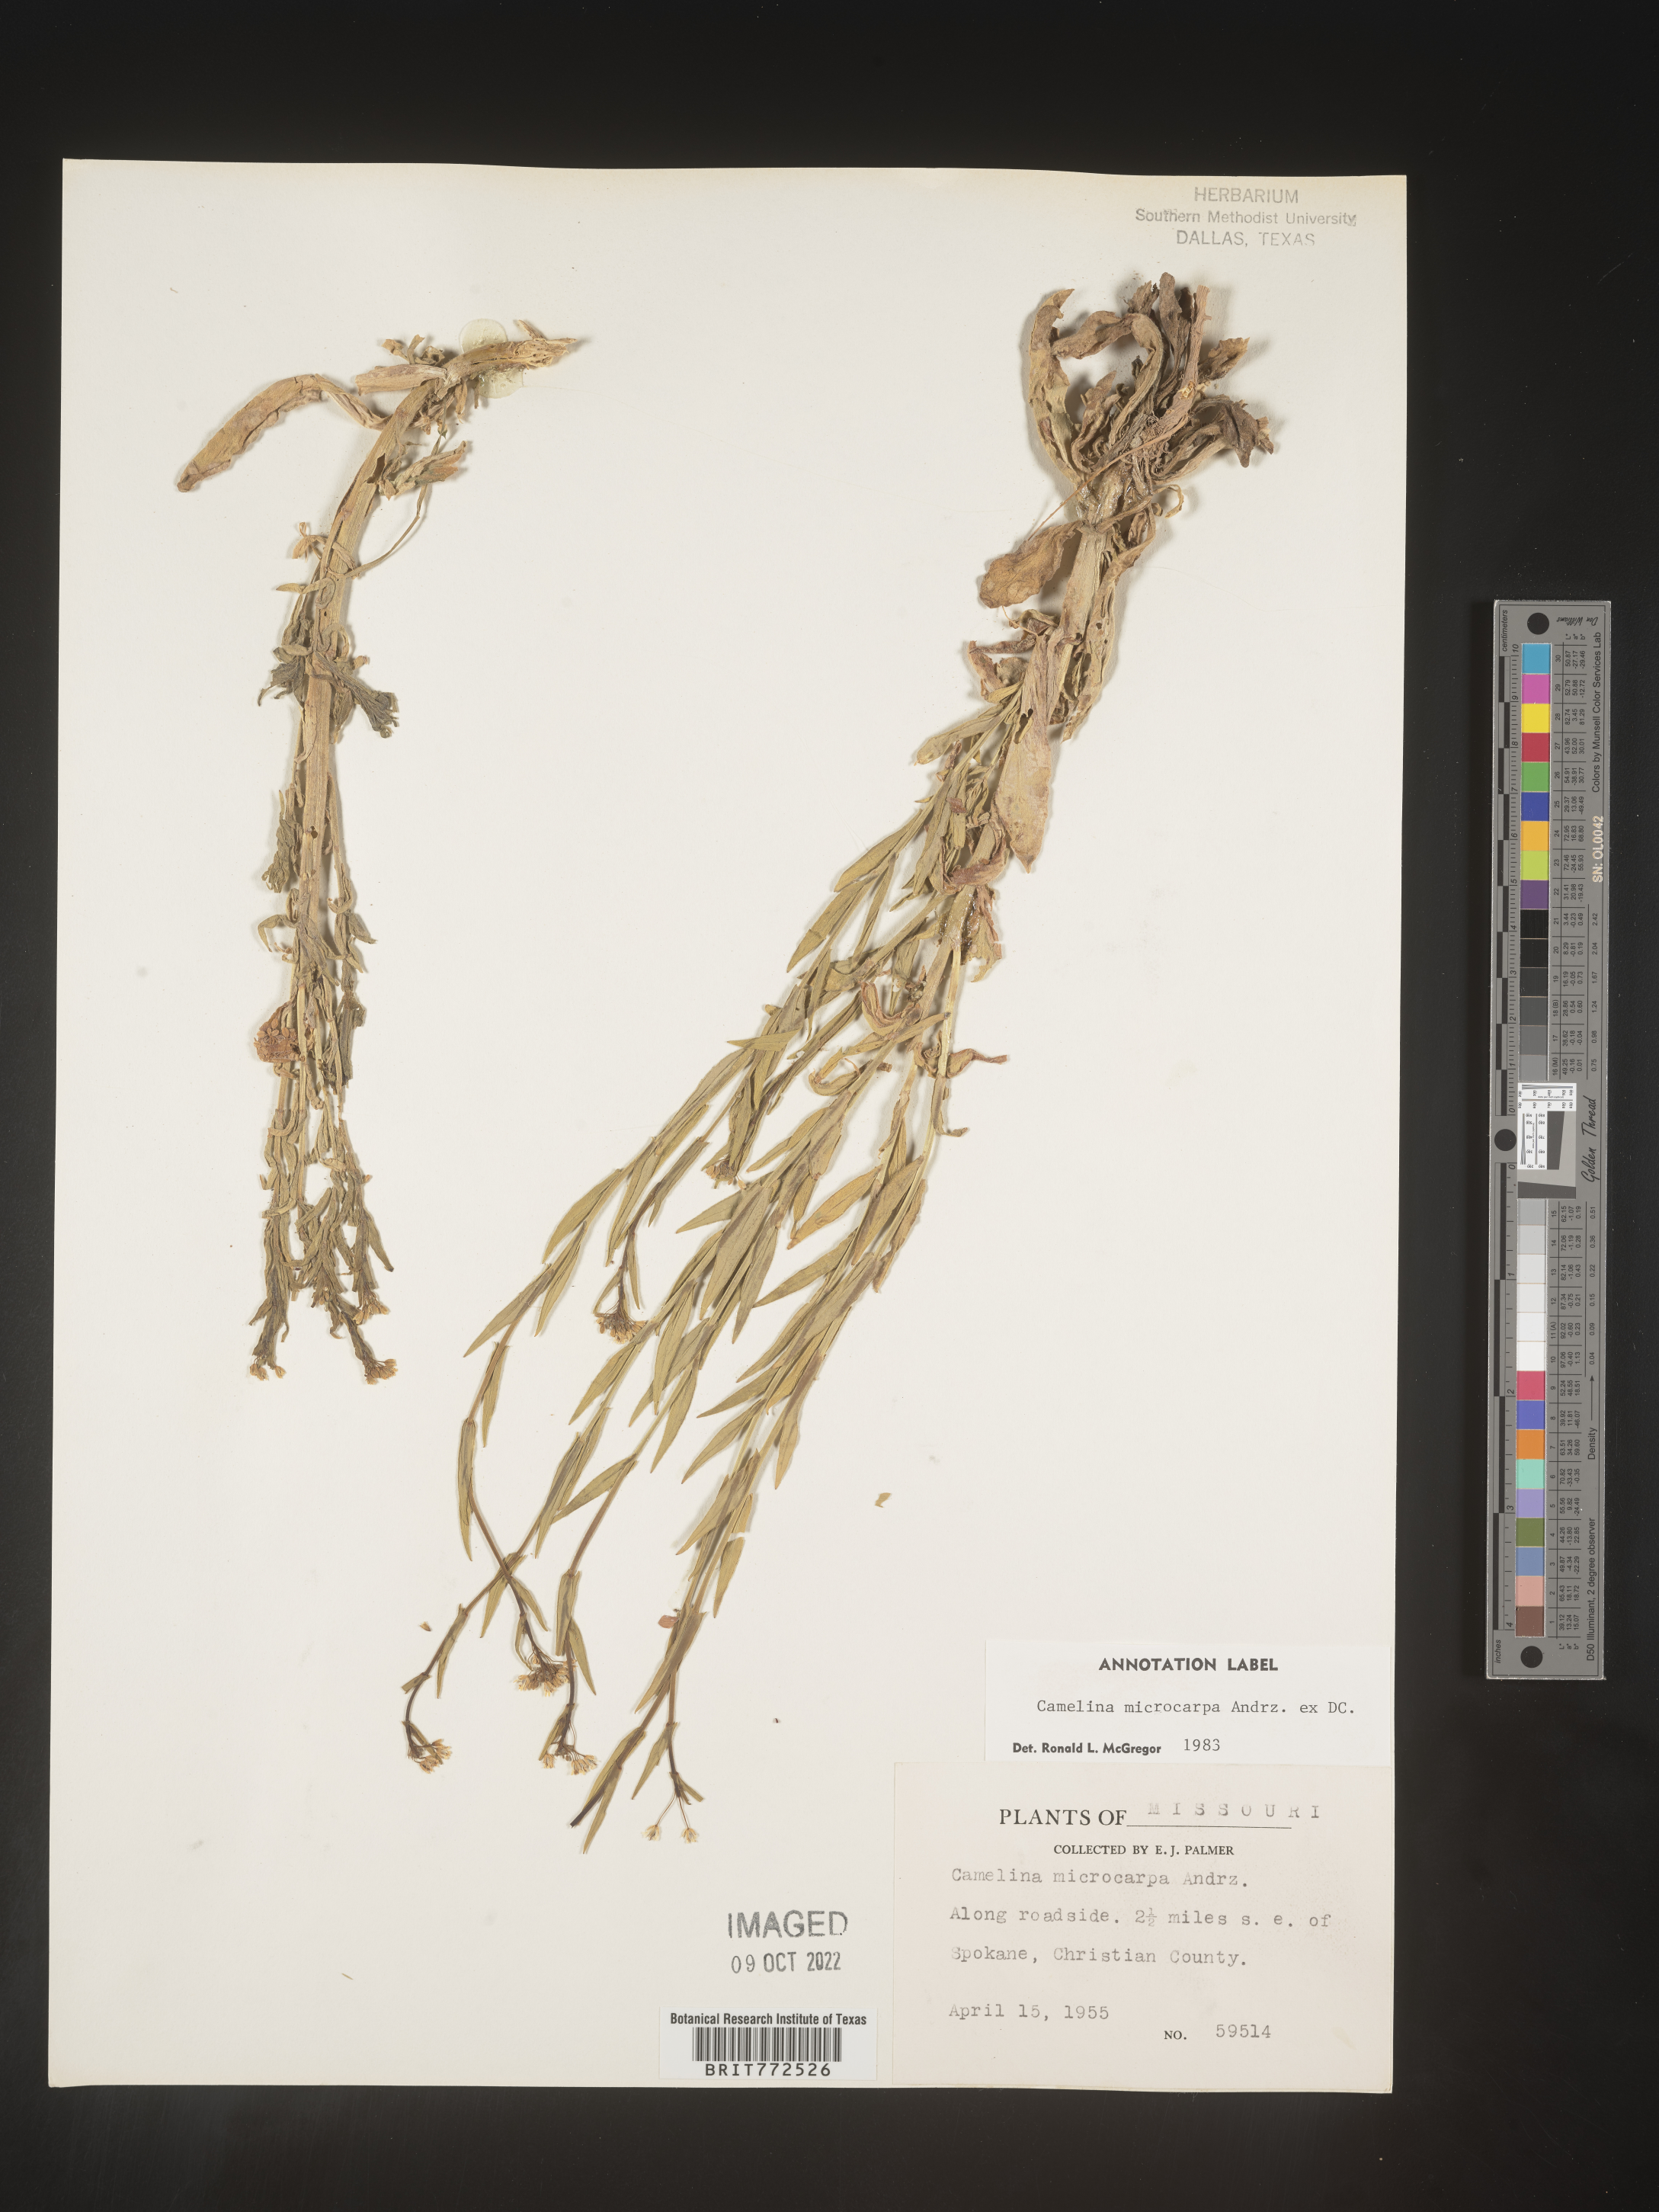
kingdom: Plantae
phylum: Tracheophyta
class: Magnoliopsida
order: Brassicales
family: Brassicaceae
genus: Camelina
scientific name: Camelina microcarpa
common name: Lesser gold-of-pleasure
